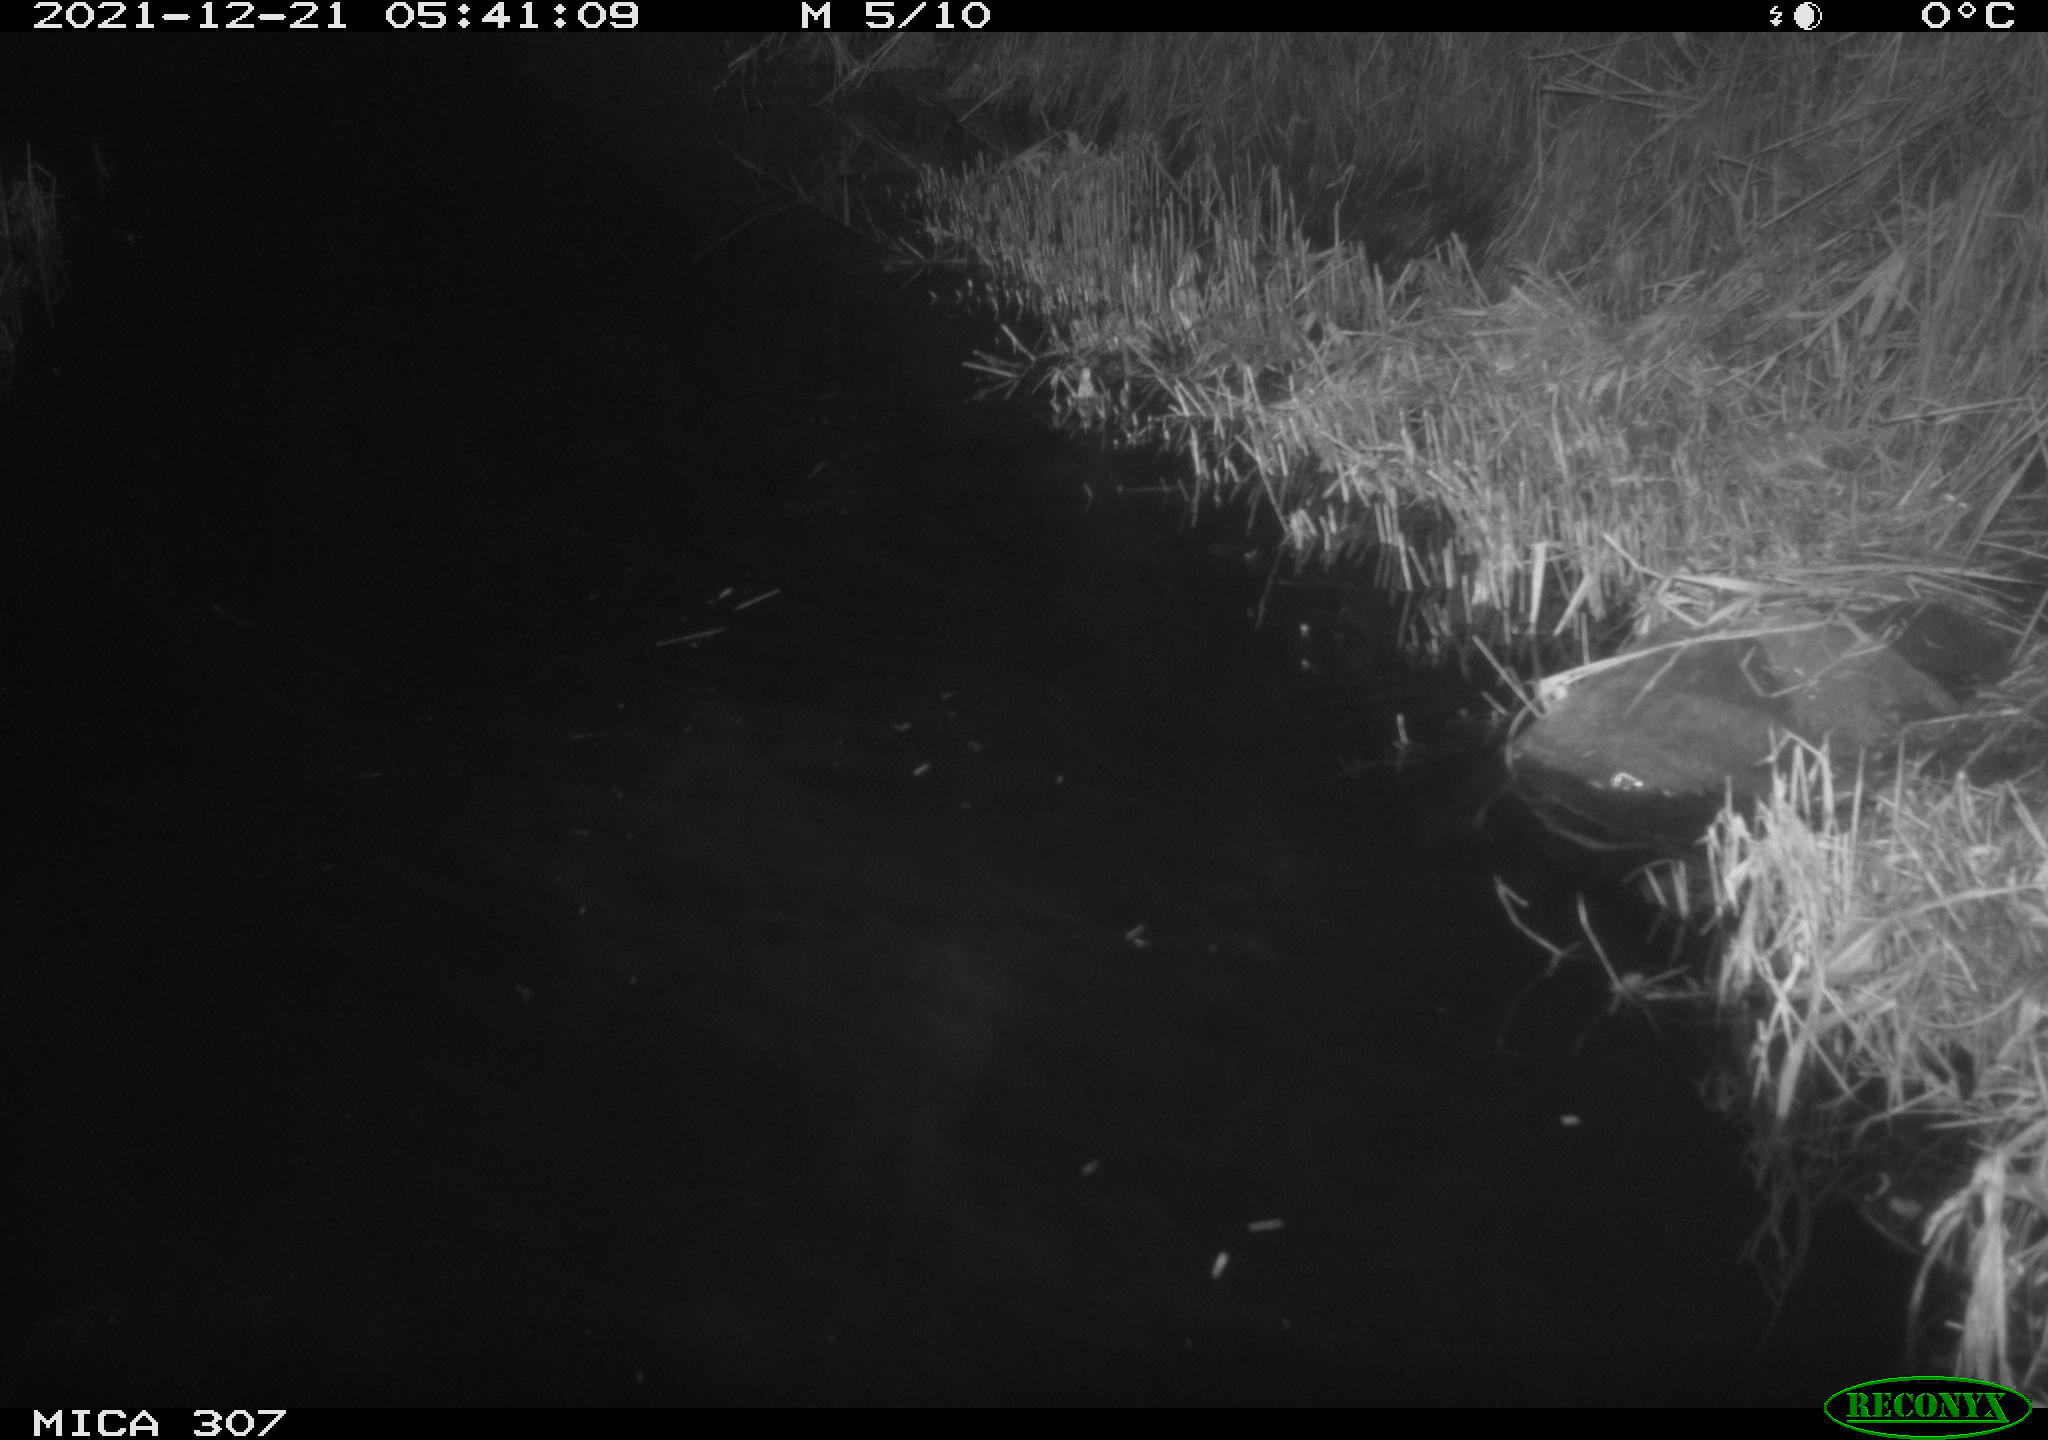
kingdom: Animalia
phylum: Chordata
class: Mammalia
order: Rodentia
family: Muridae
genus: Rattus
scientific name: Rattus norvegicus
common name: Brown rat
